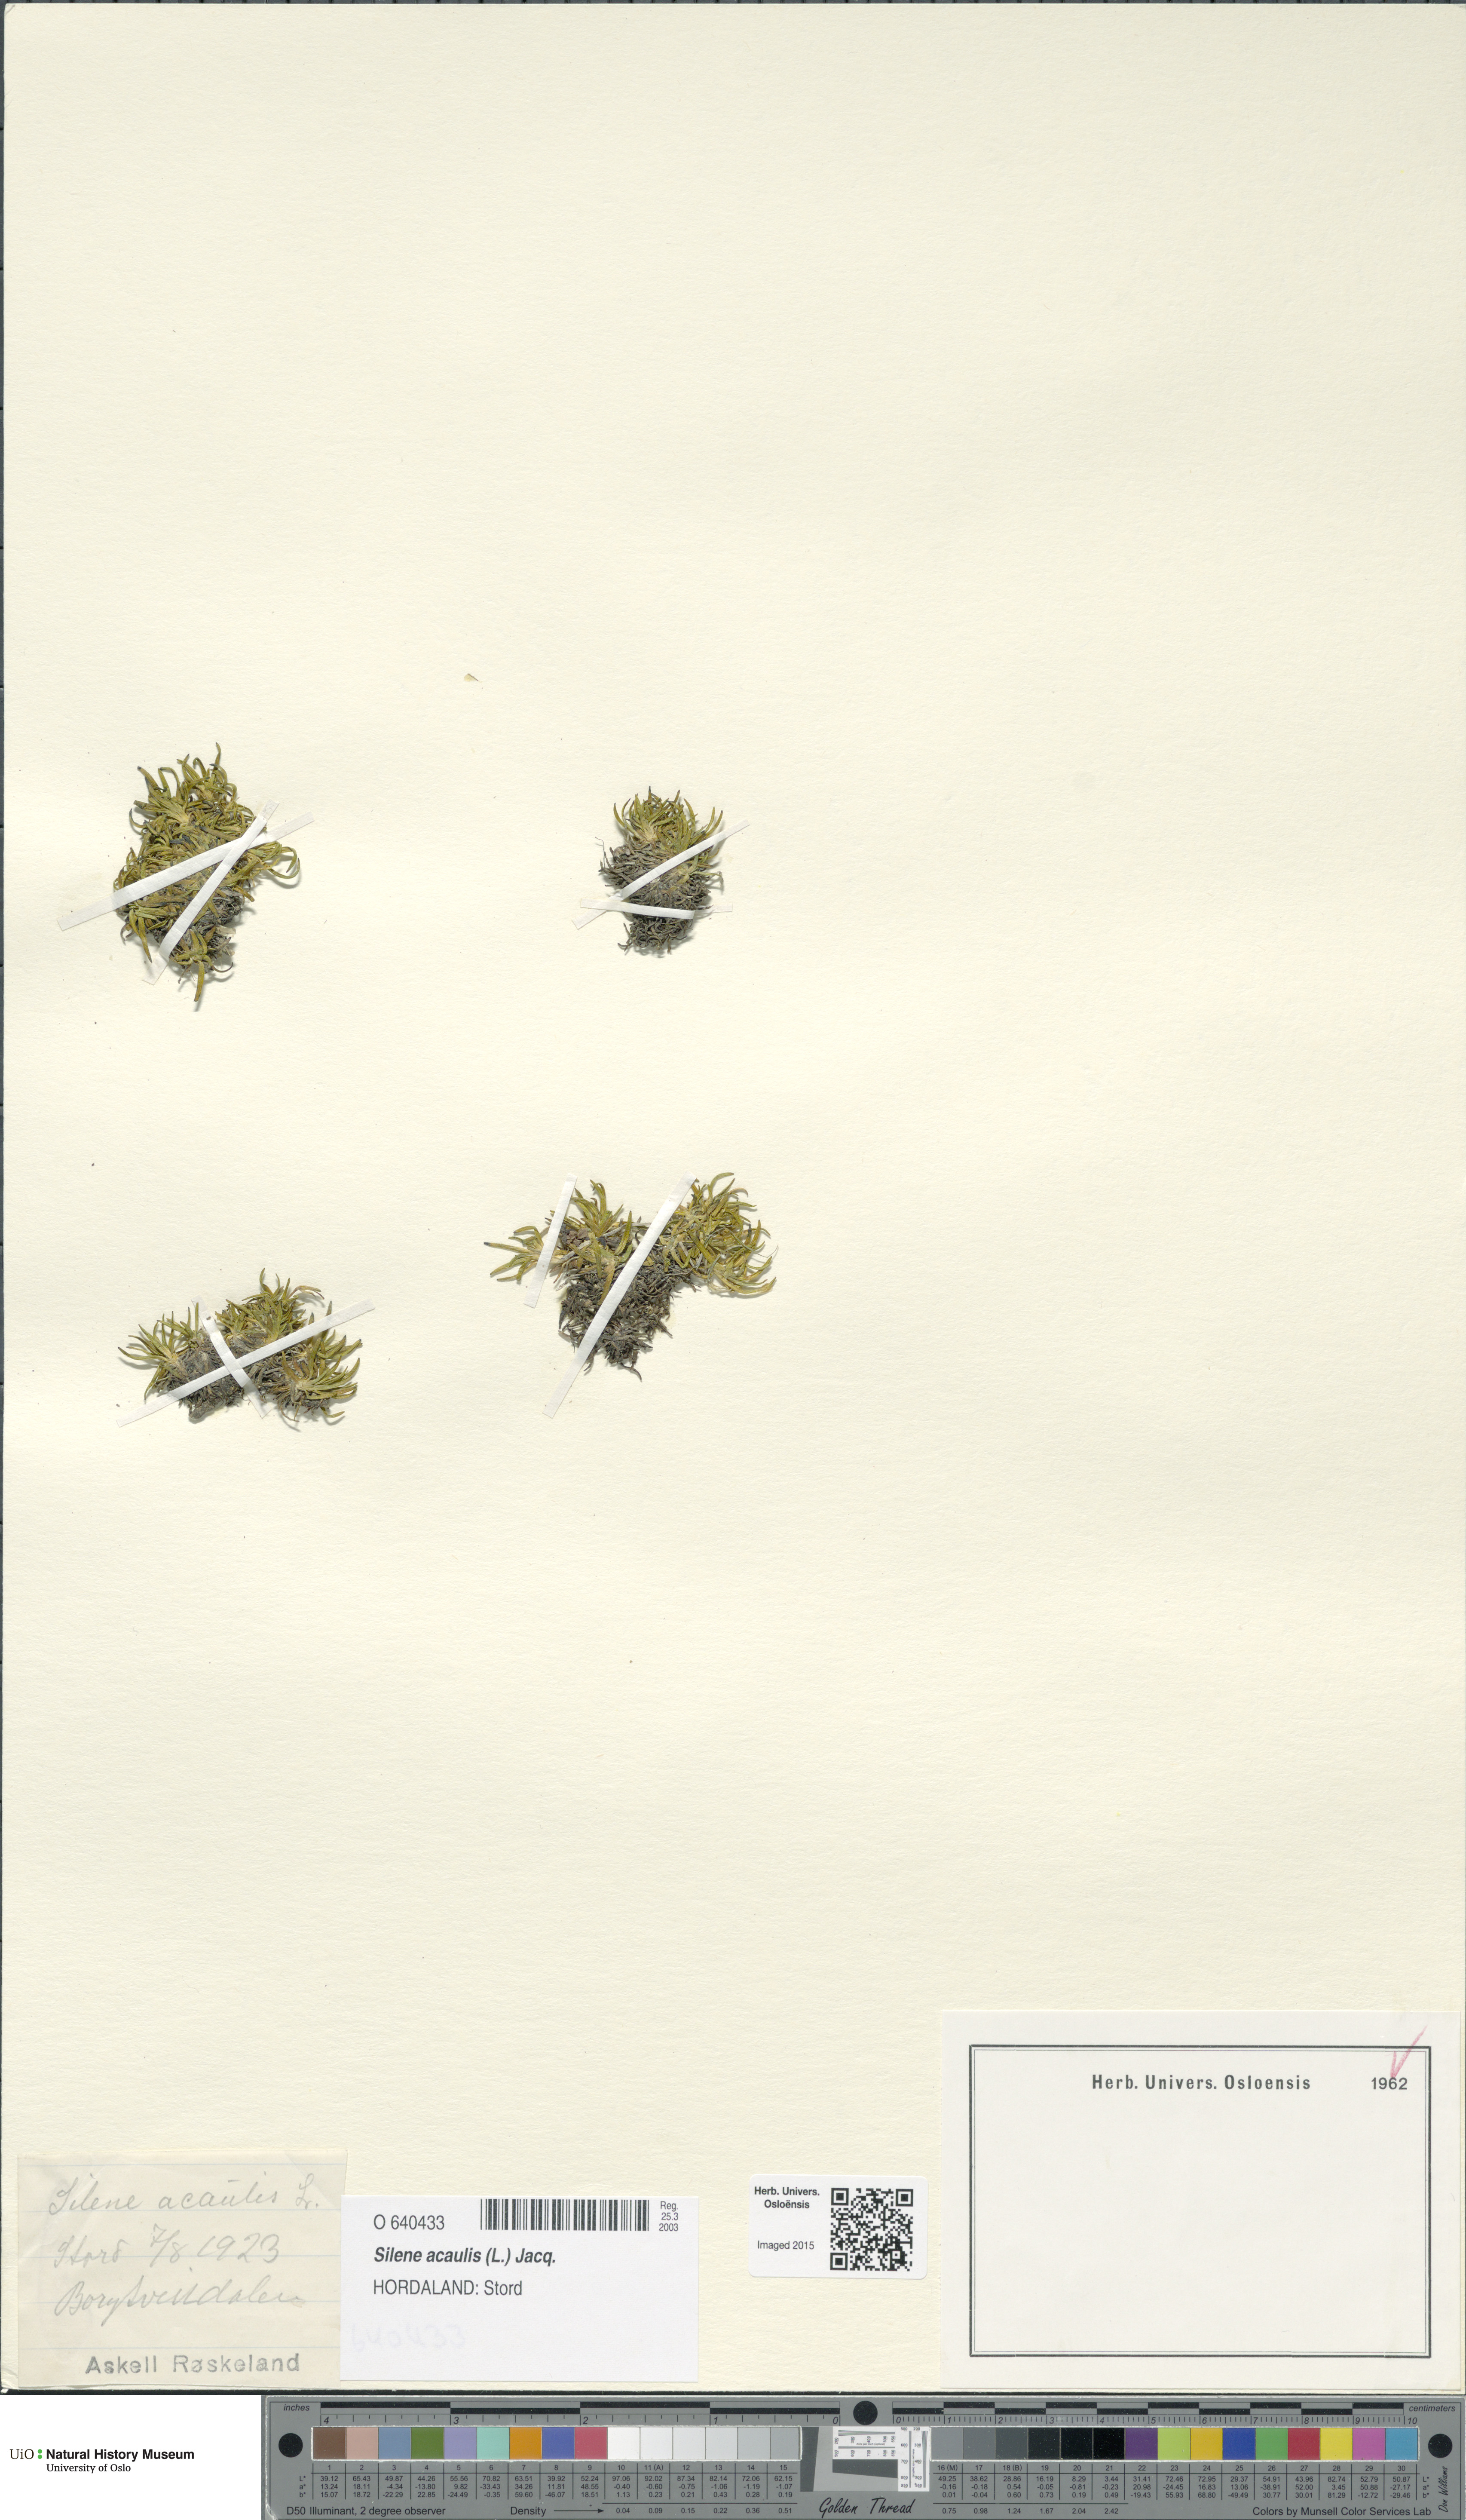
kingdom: Plantae
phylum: Tracheophyta
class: Magnoliopsida
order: Caryophyllales
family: Caryophyllaceae
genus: Silene
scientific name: Silene acaulis
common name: Moss campion
